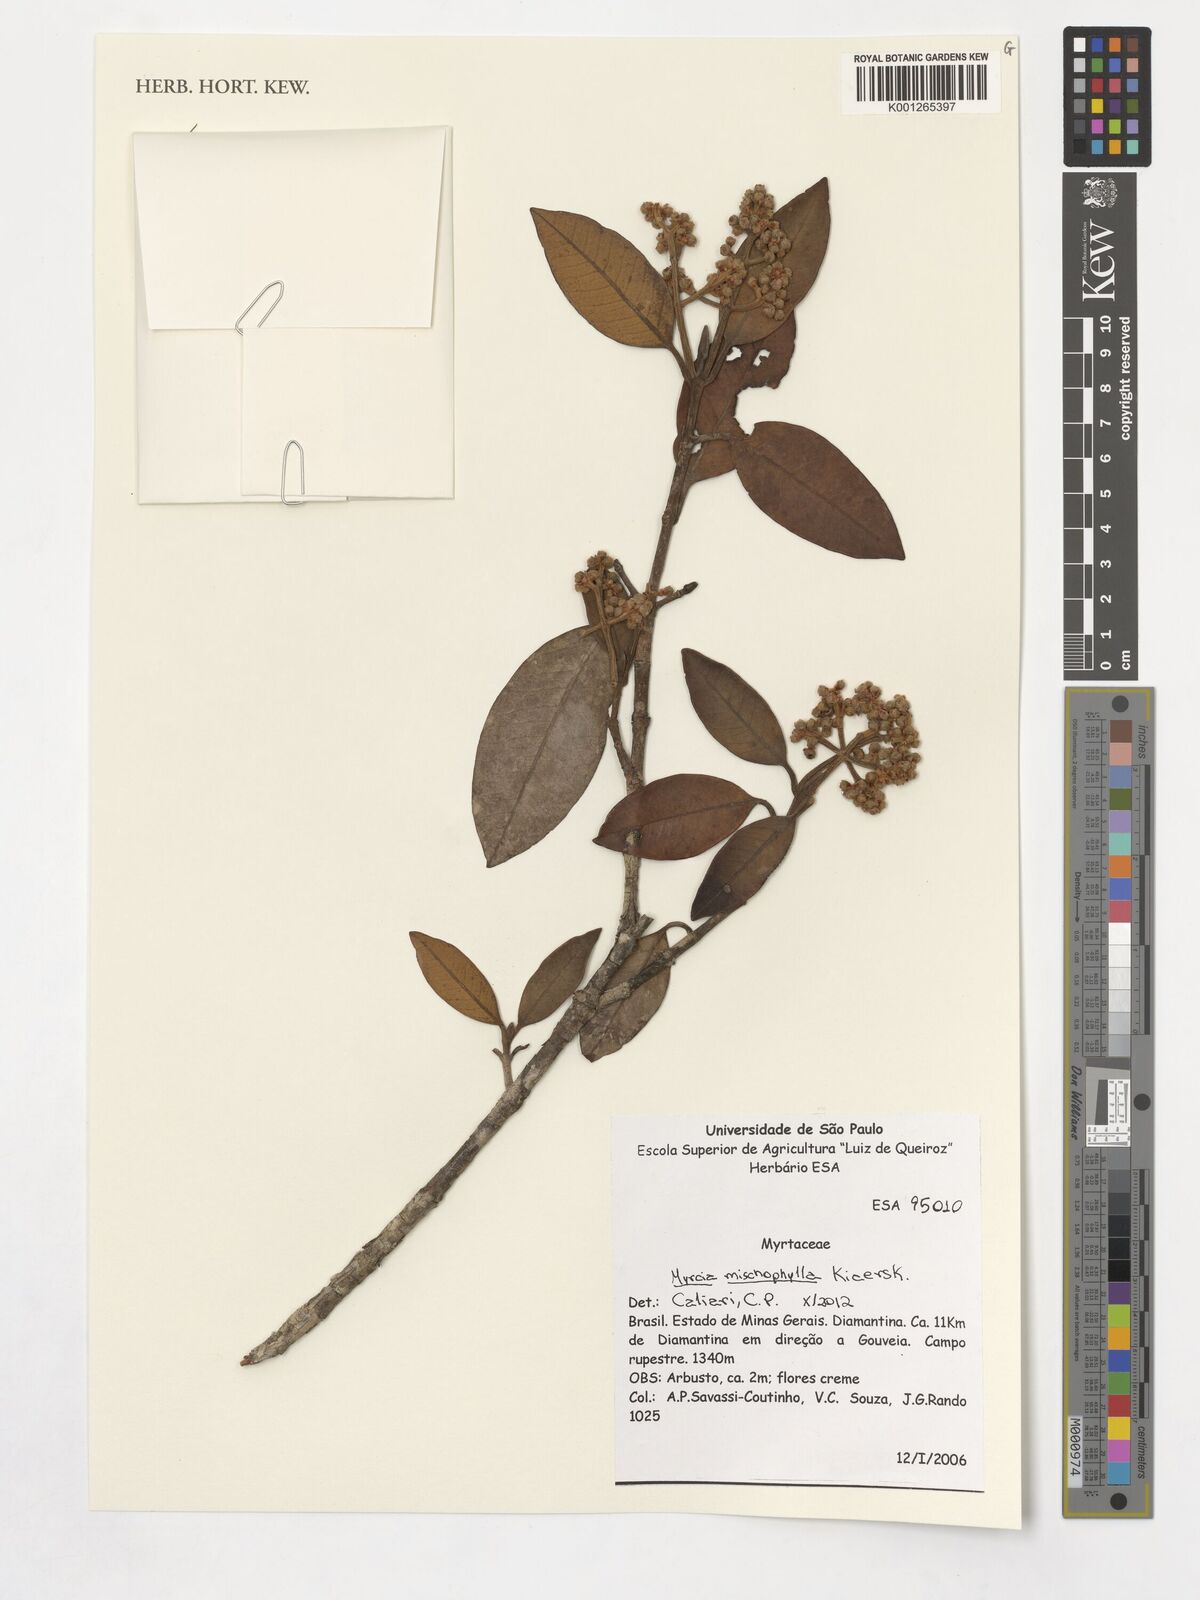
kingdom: Plantae
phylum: Tracheophyta
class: Magnoliopsida
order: Myrtales
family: Myrtaceae
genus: Myrcia
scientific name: Myrcia mischophylla
